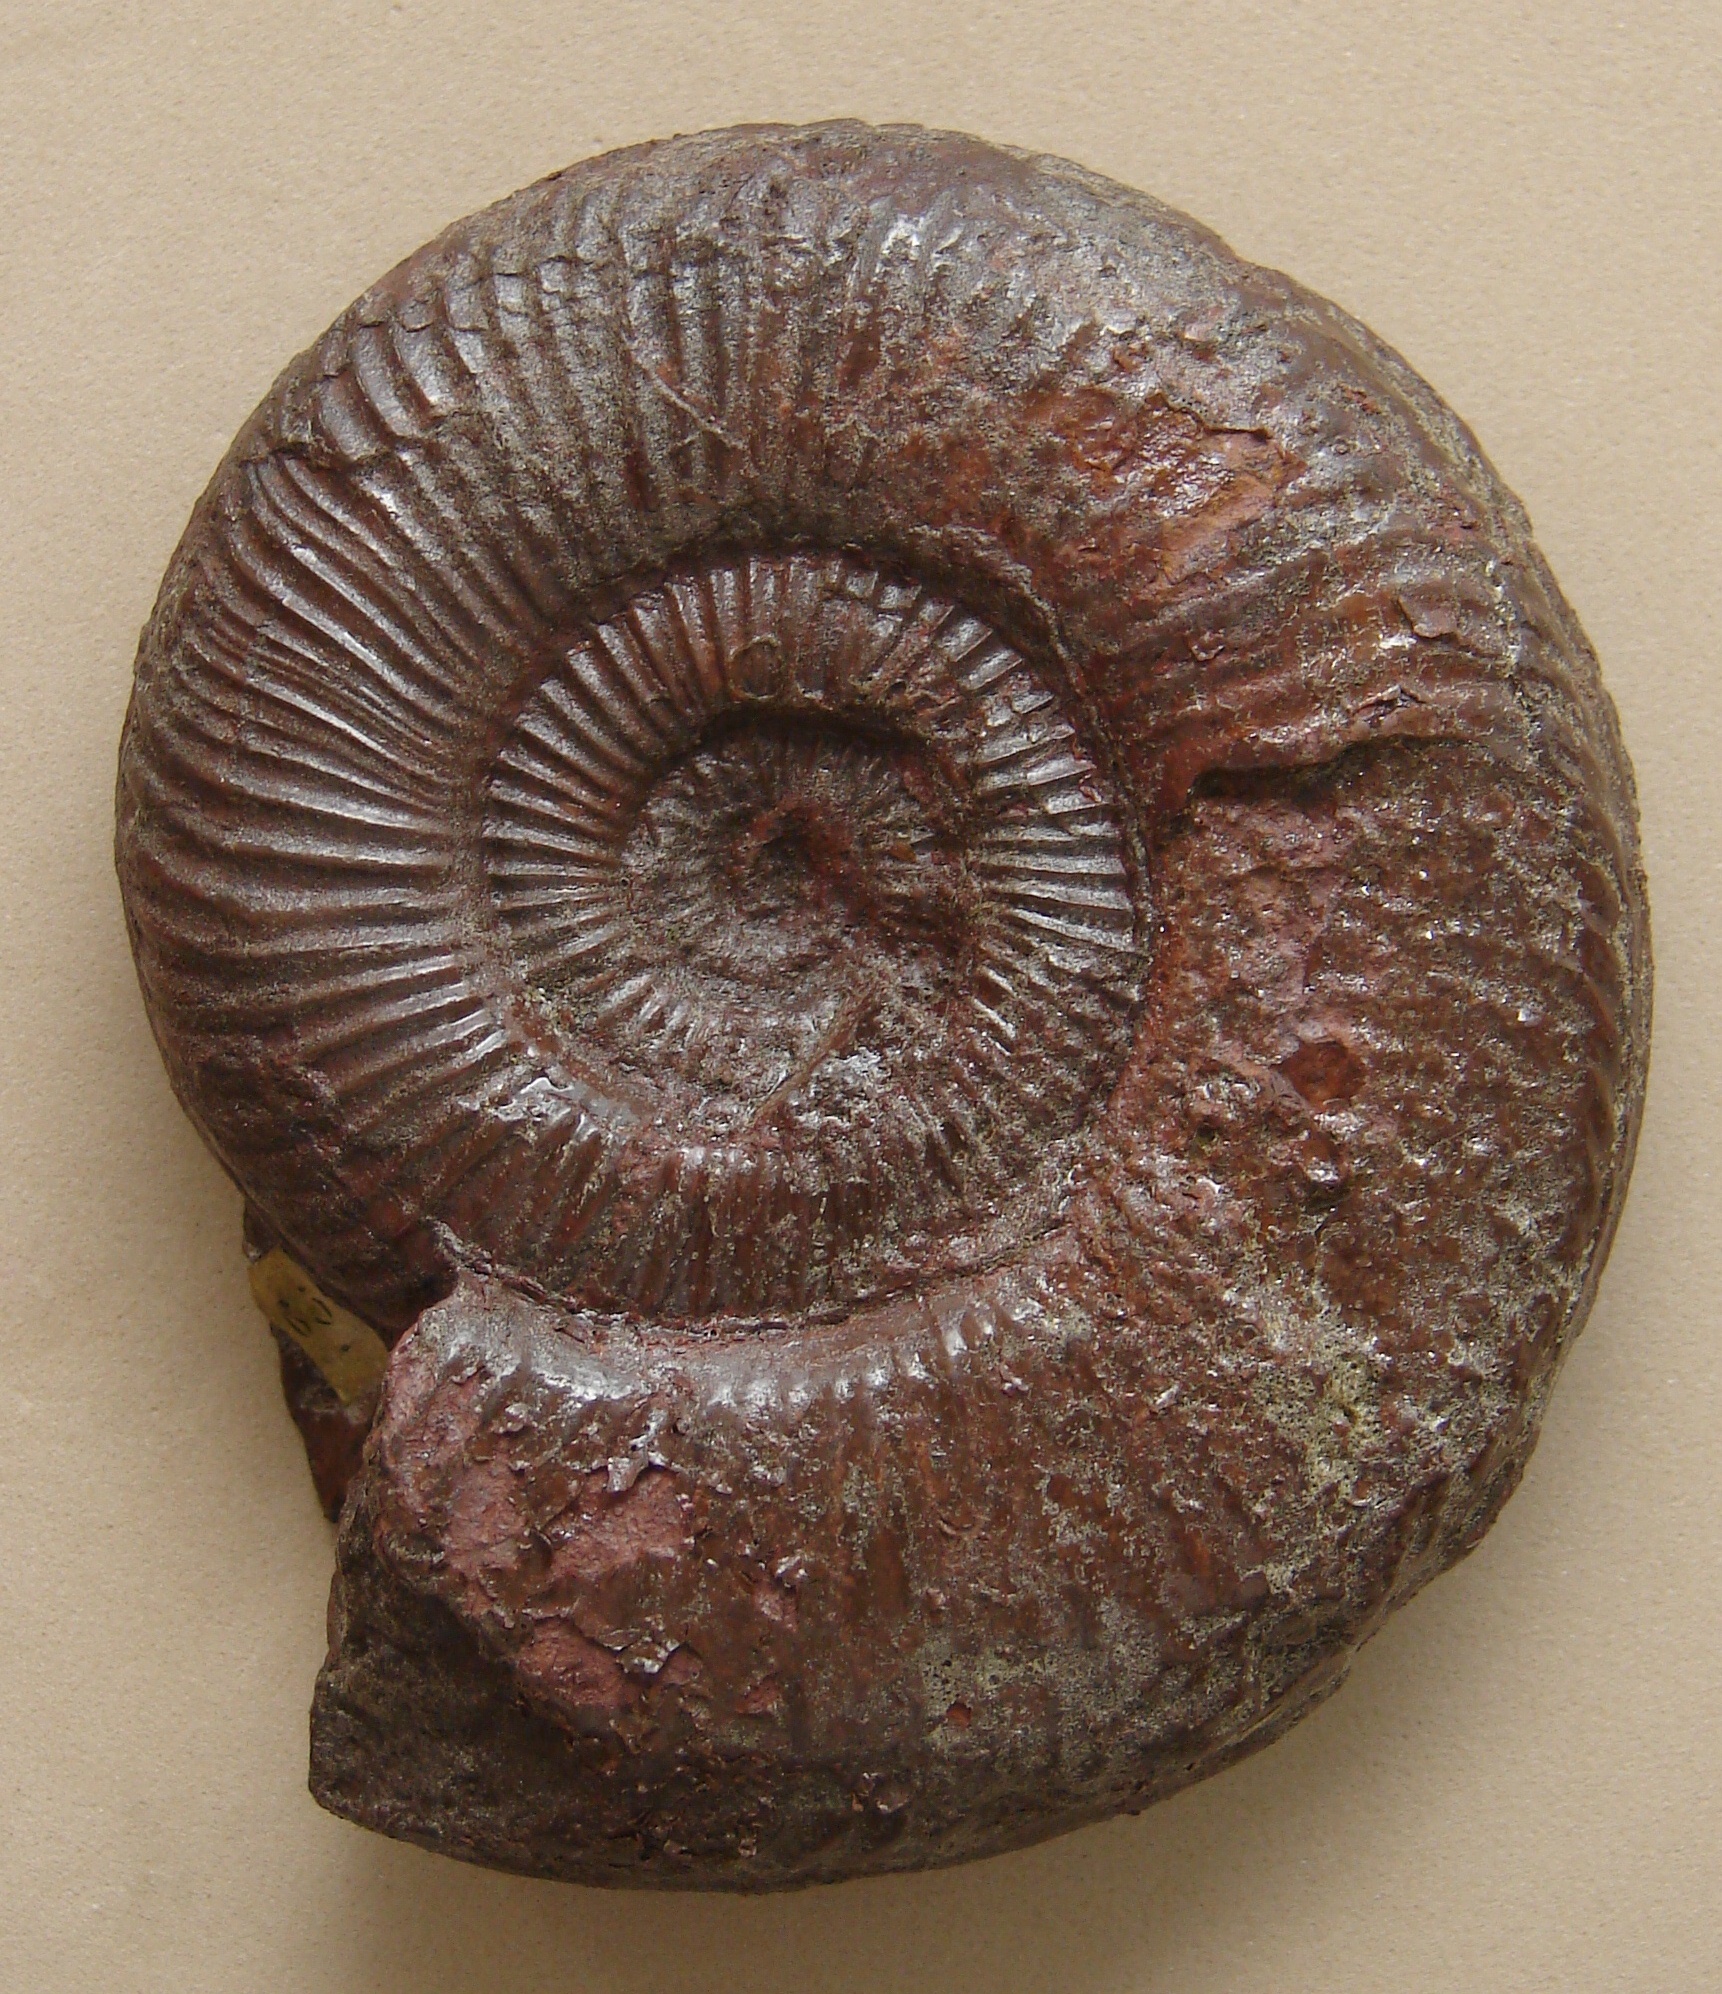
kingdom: Animalia
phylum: Mollusca
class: Cephalopoda
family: Hildoceratidae
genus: Dumortieria
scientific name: Dumortieria radians
